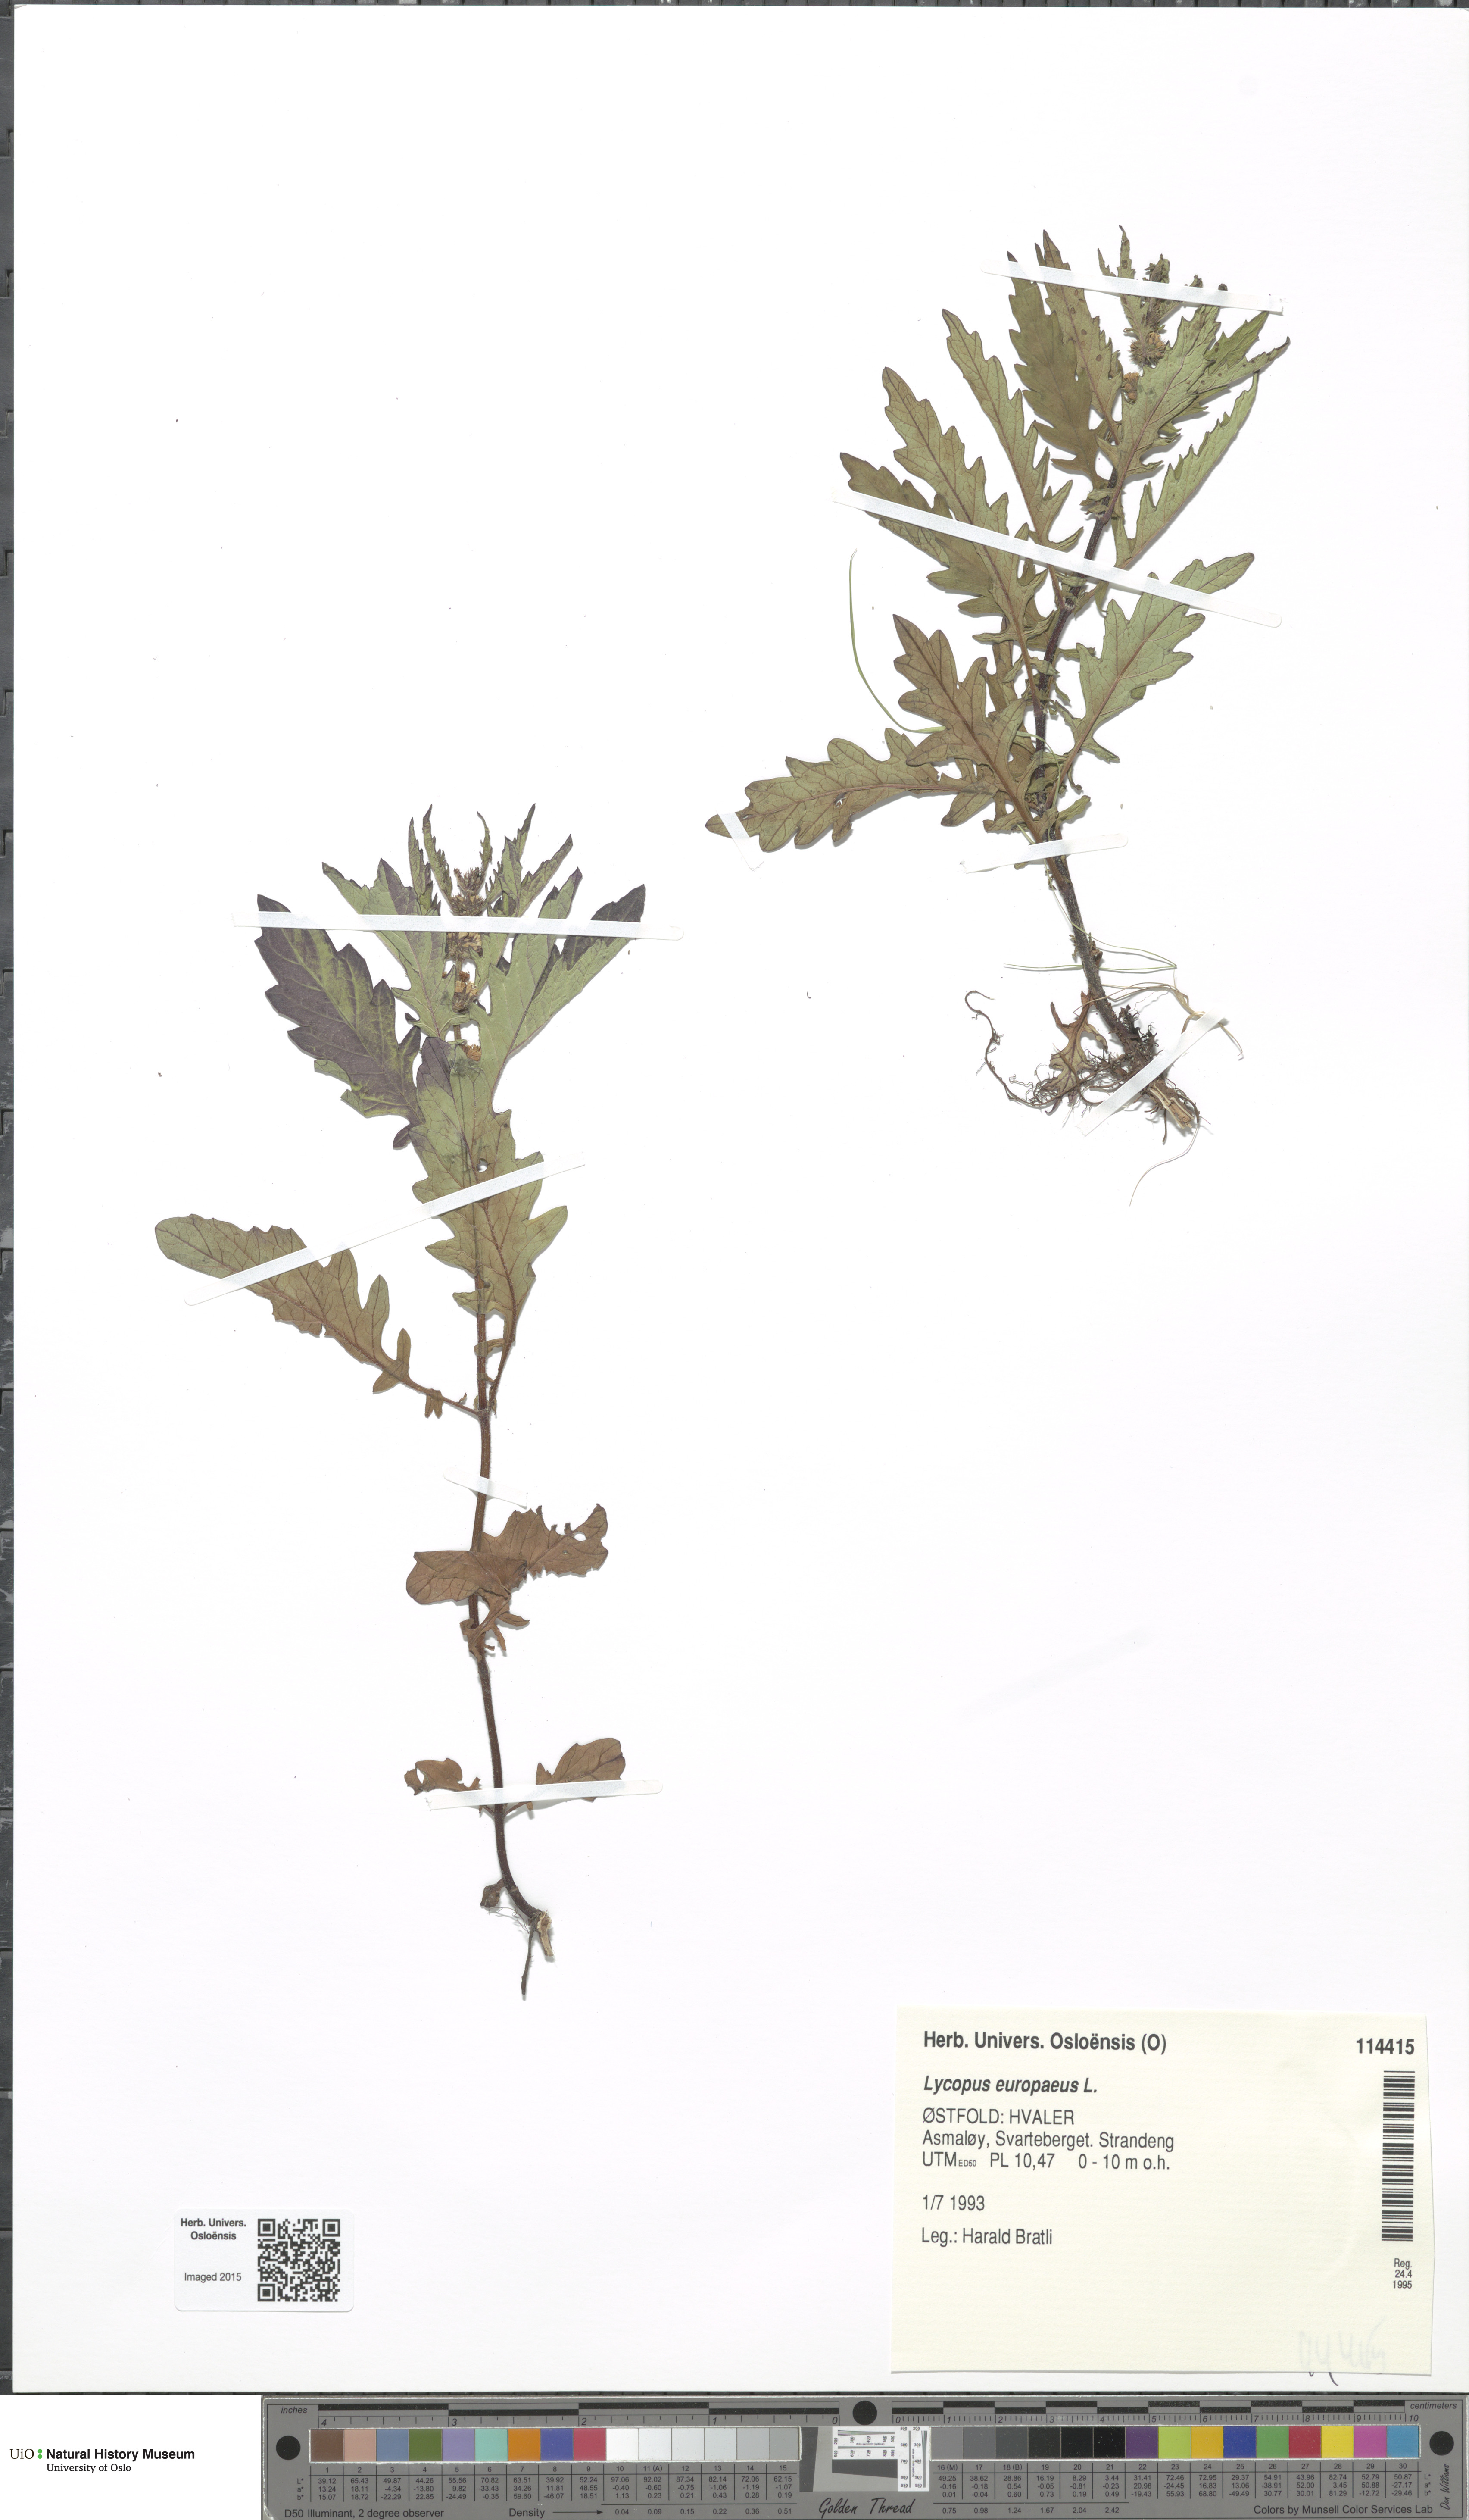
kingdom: Plantae
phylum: Tracheophyta
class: Magnoliopsida
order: Lamiales
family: Lamiaceae
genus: Lycopus
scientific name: Lycopus europaeus
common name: European bugleweed
